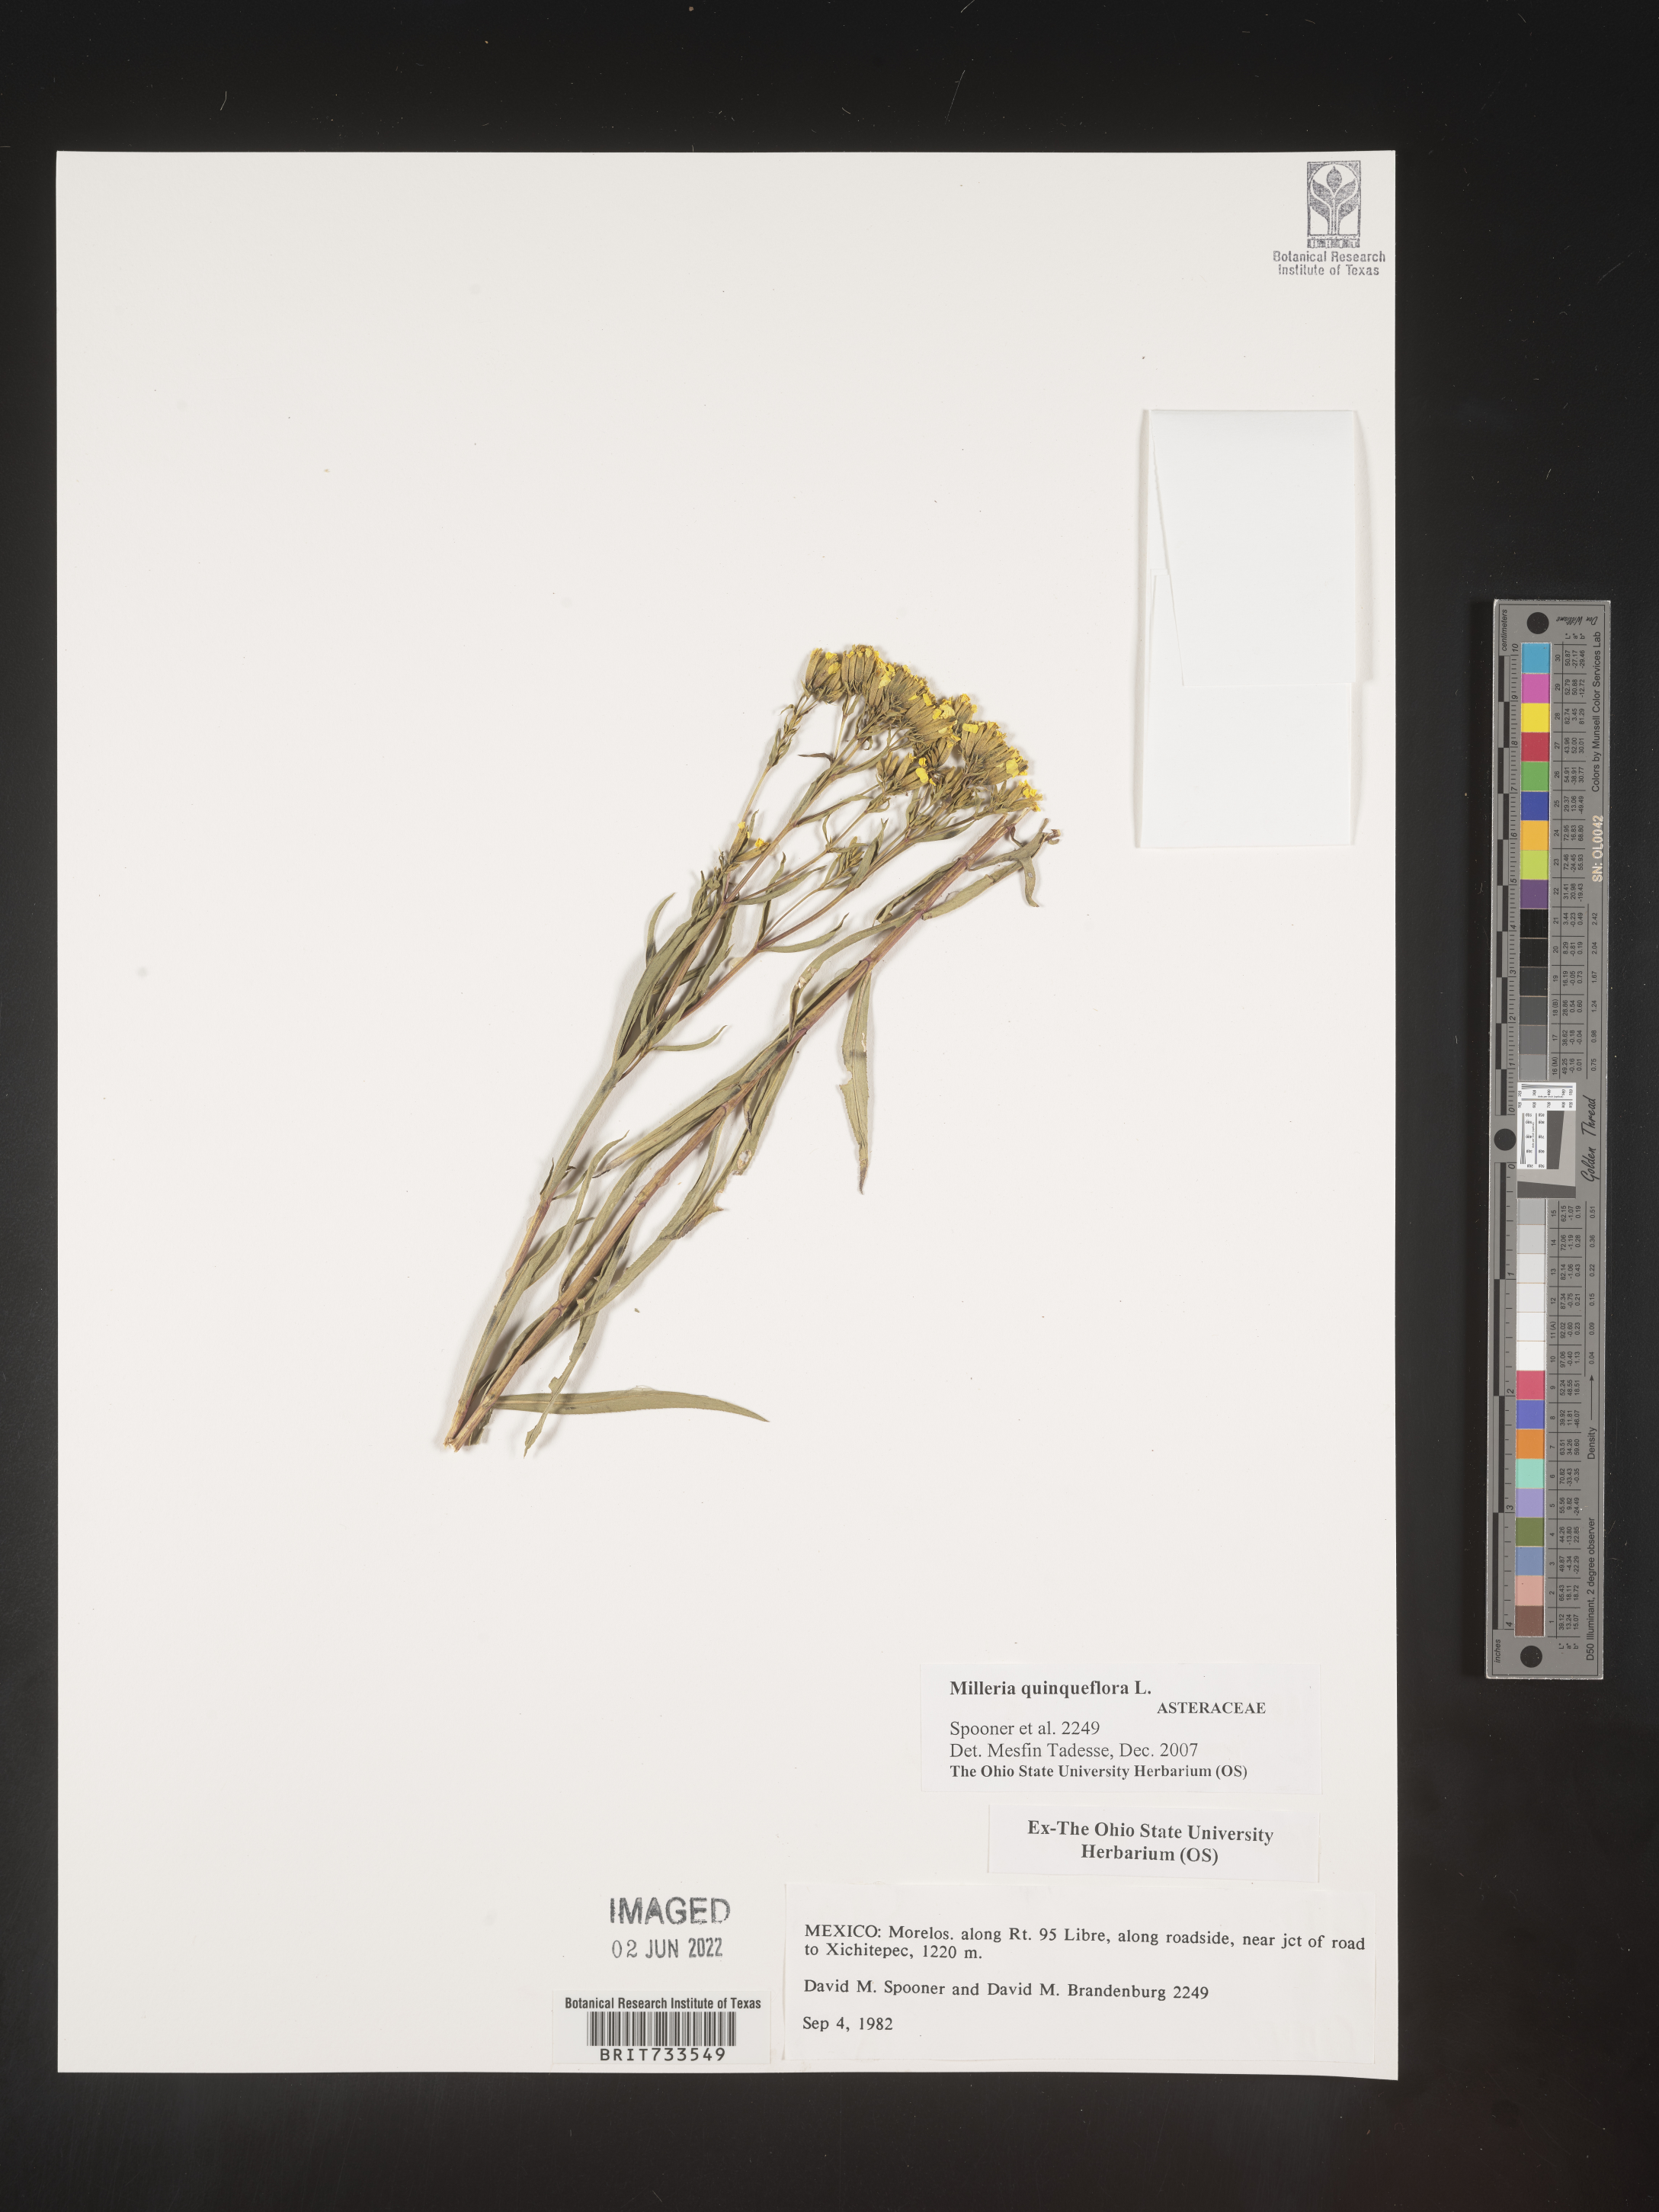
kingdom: Plantae
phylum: Tracheophyta
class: Magnoliopsida
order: Asterales
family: Asteraceae
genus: Milleria
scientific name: Milleria
